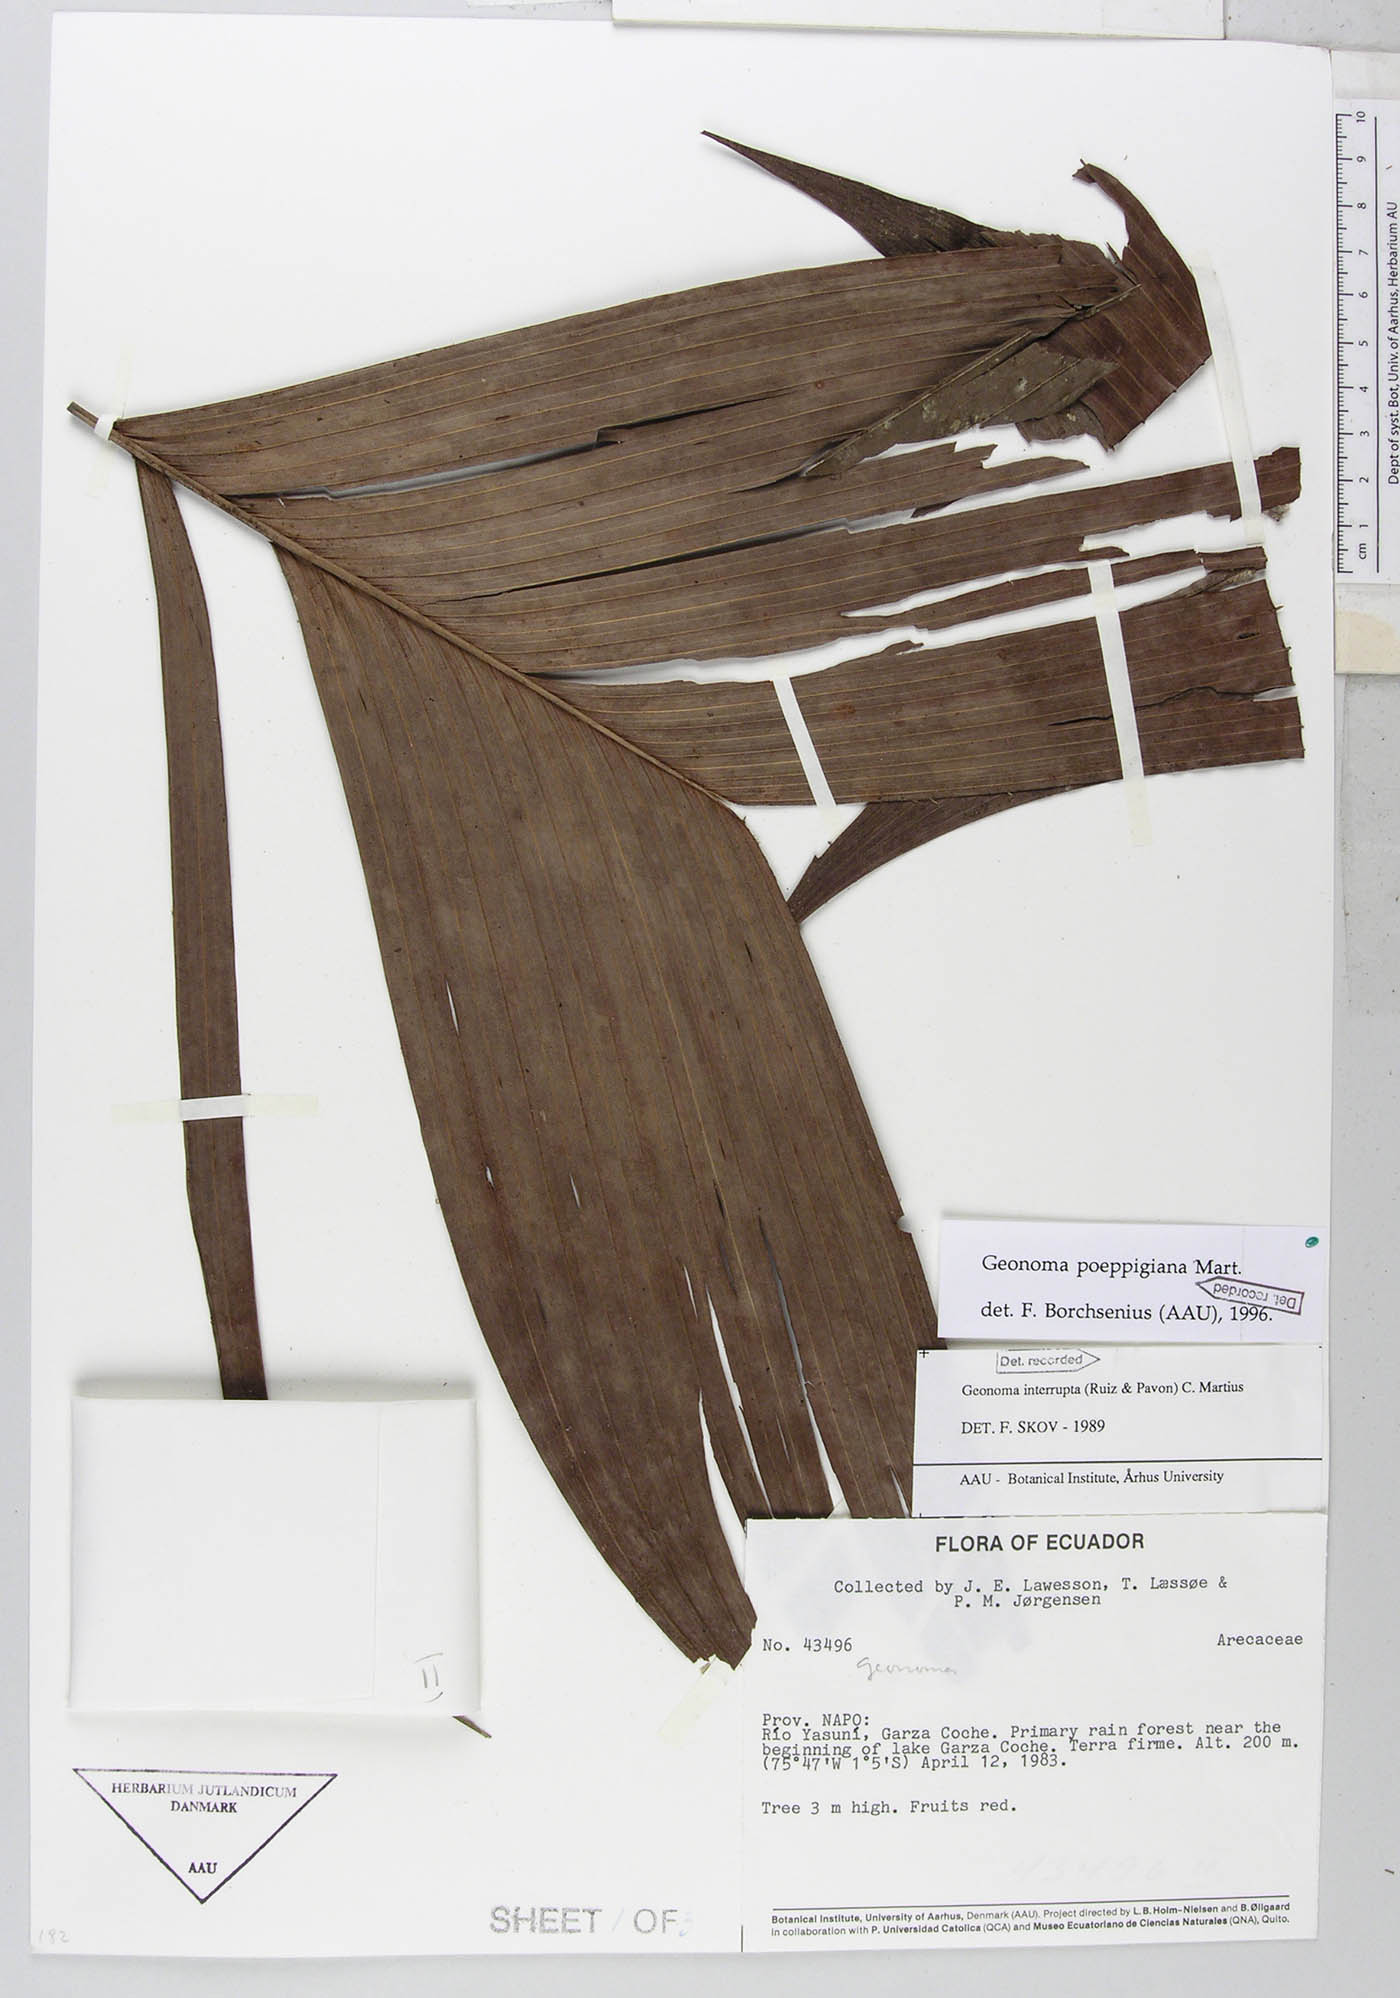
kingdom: Plantae
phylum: Tracheophyta
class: Liliopsida
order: Arecales
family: Arecaceae
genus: Geonoma
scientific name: Geonoma poeppigiana
